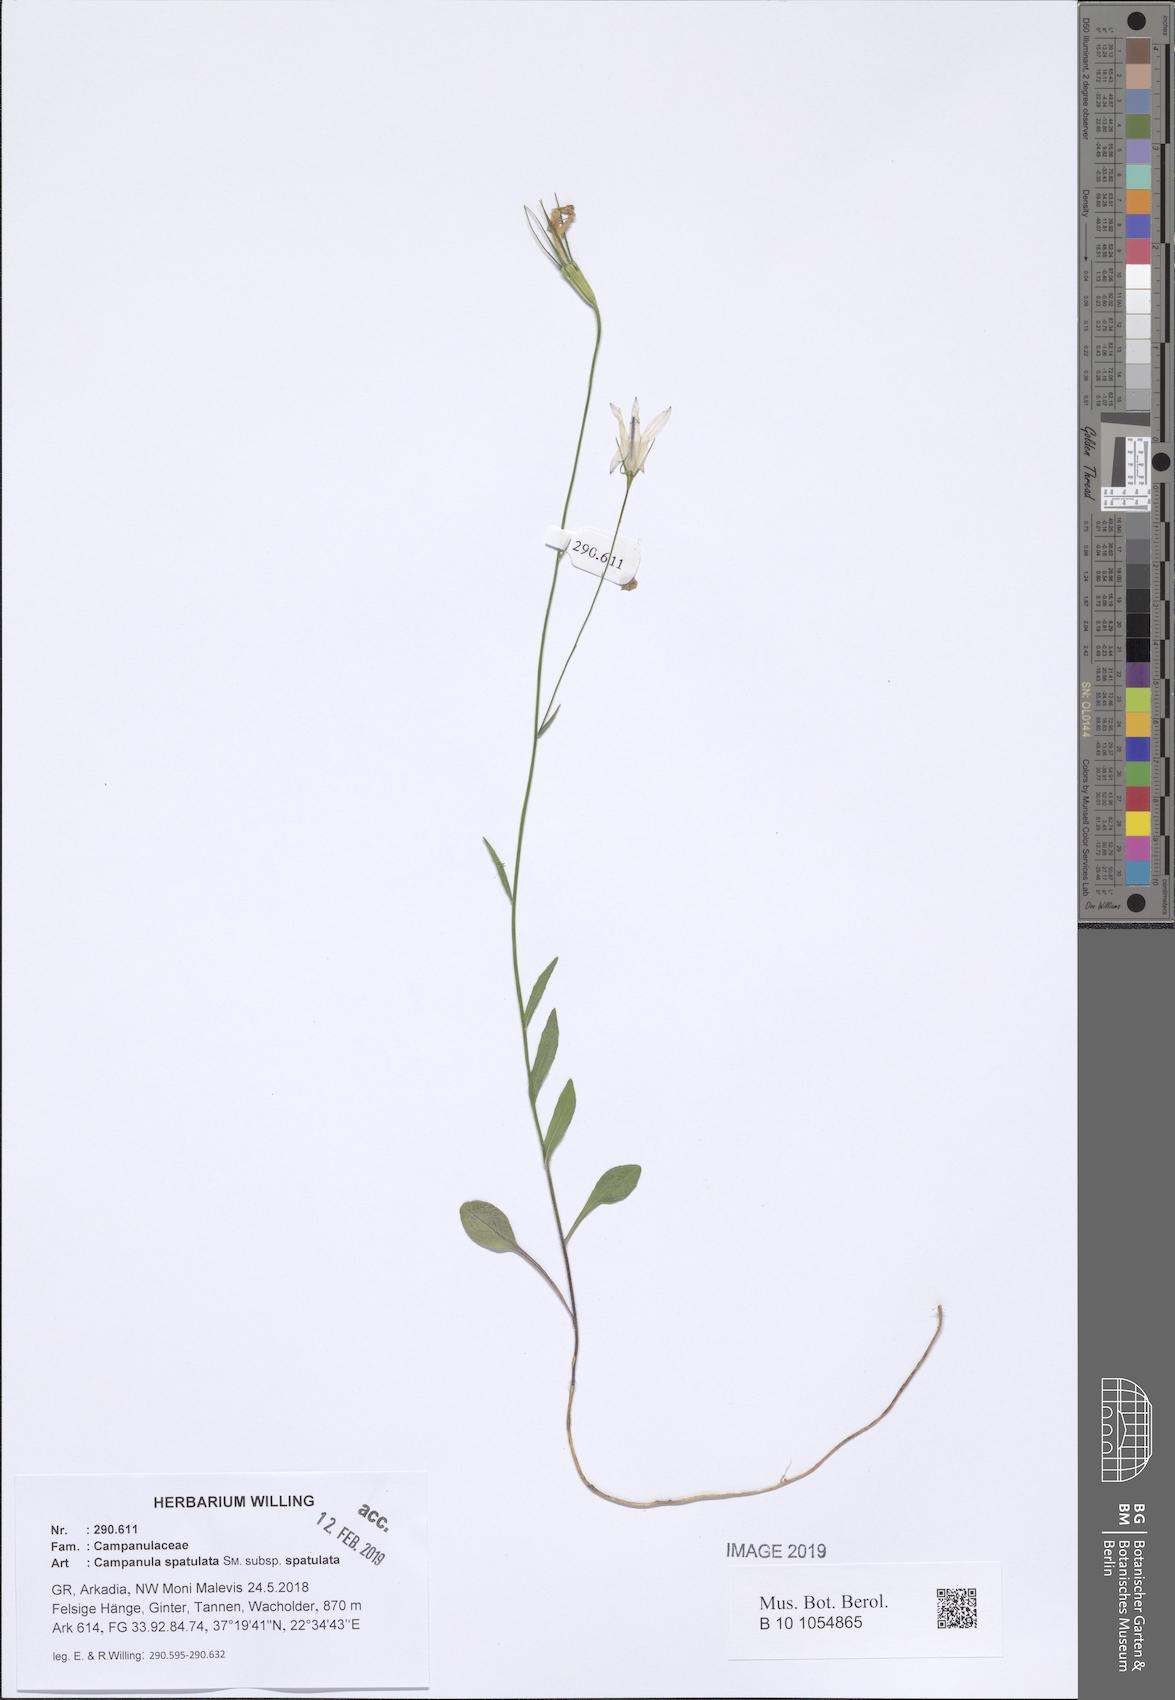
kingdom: Plantae
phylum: Tracheophyta
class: Magnoliopsida
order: Asterales
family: Campanulaceae
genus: Campanula
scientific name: Campanula spatulata
